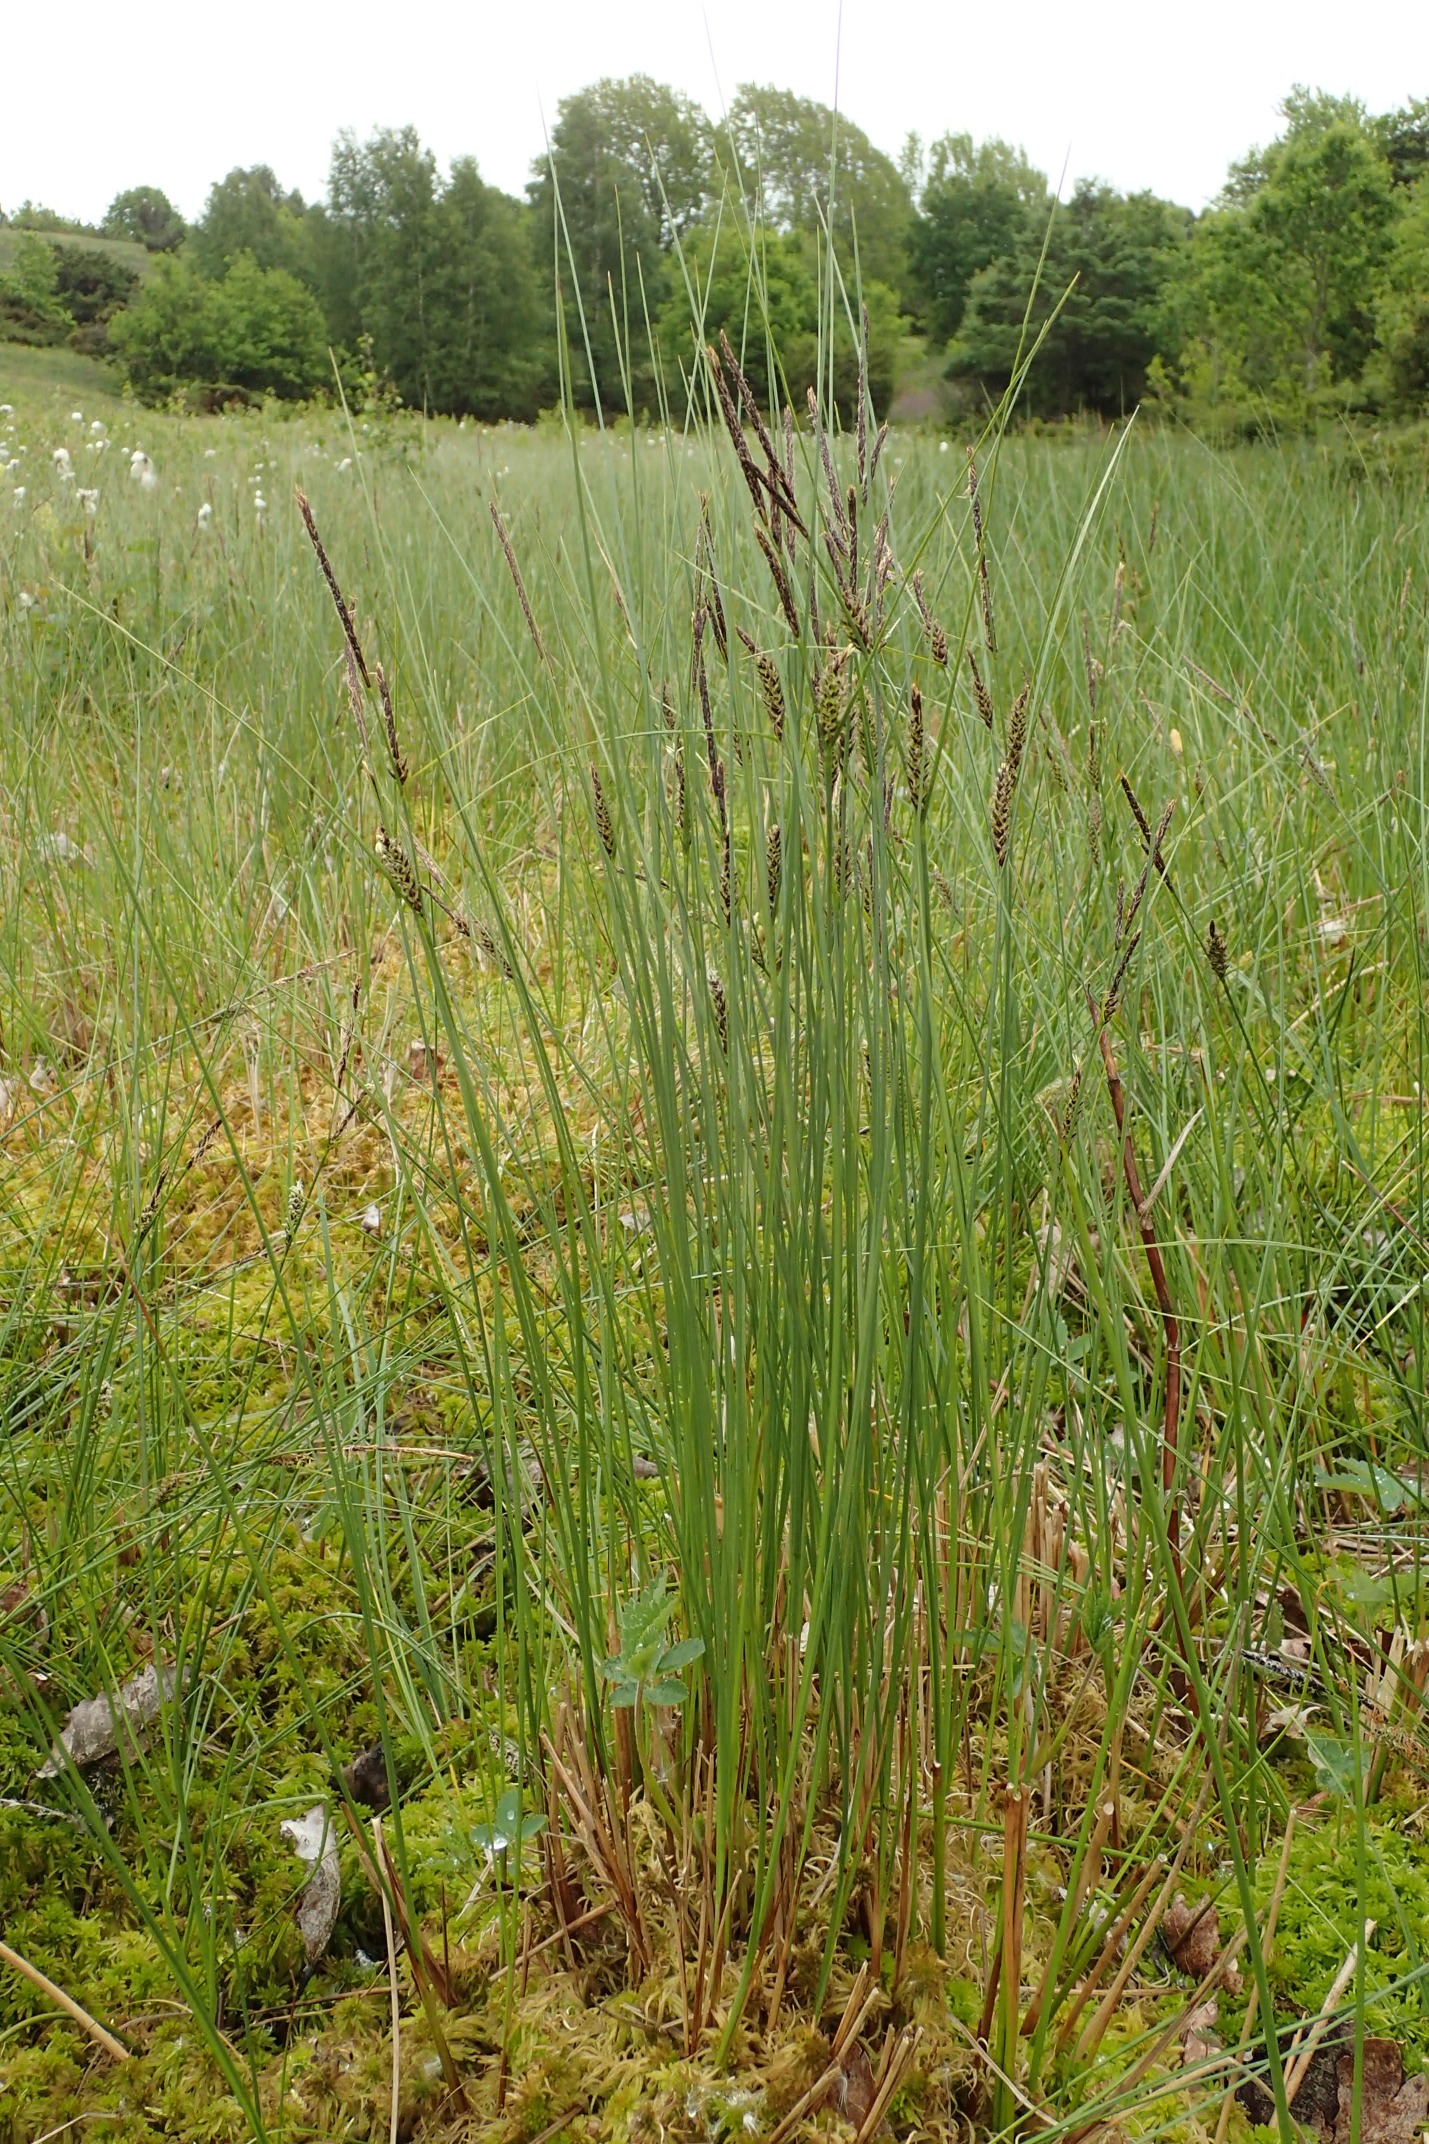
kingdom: Plantae
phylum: Tracheophyta
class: Liliopsida
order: Poales
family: Cyperaceae
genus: Carex
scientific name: Carex lasiocarpa
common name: Tråd-star
